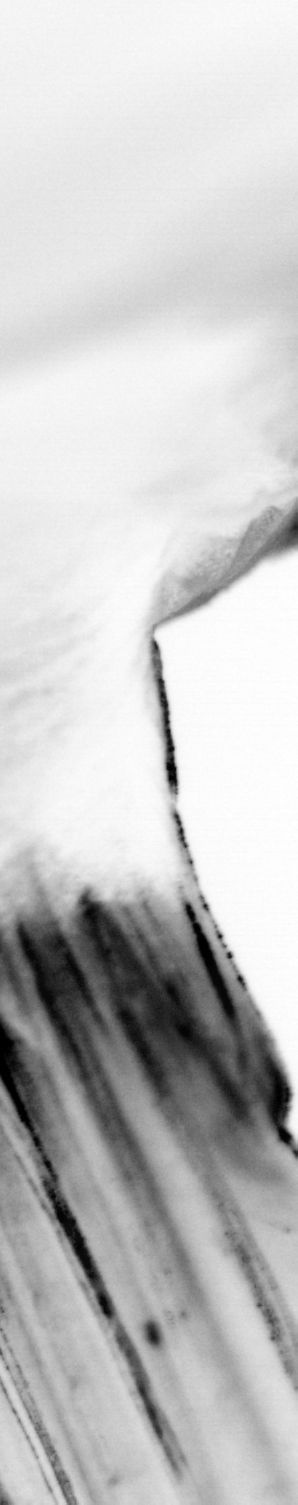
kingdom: Animalia
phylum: Chordata
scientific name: Chordata
